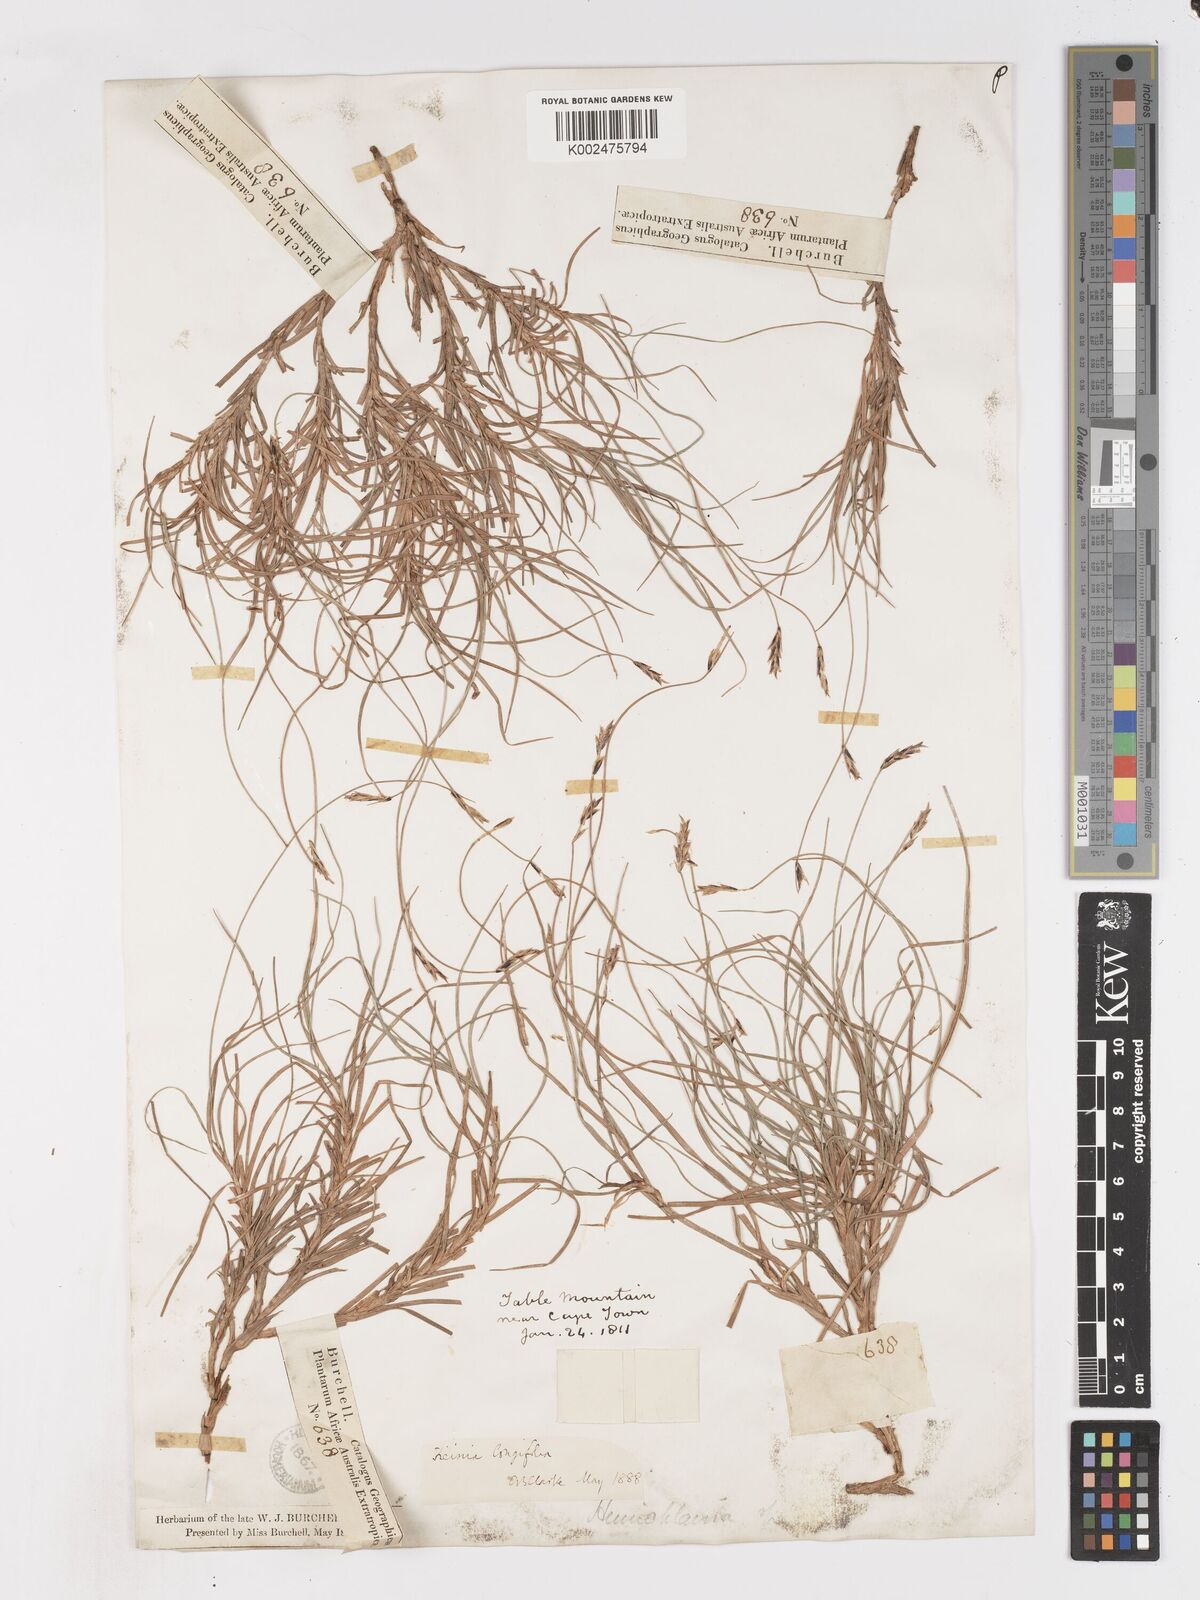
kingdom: Plantae
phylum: Tracheophyta
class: Liliopsida
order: Poales
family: Cyperaceae
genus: Ficinia
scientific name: Ficinia angustifolia
